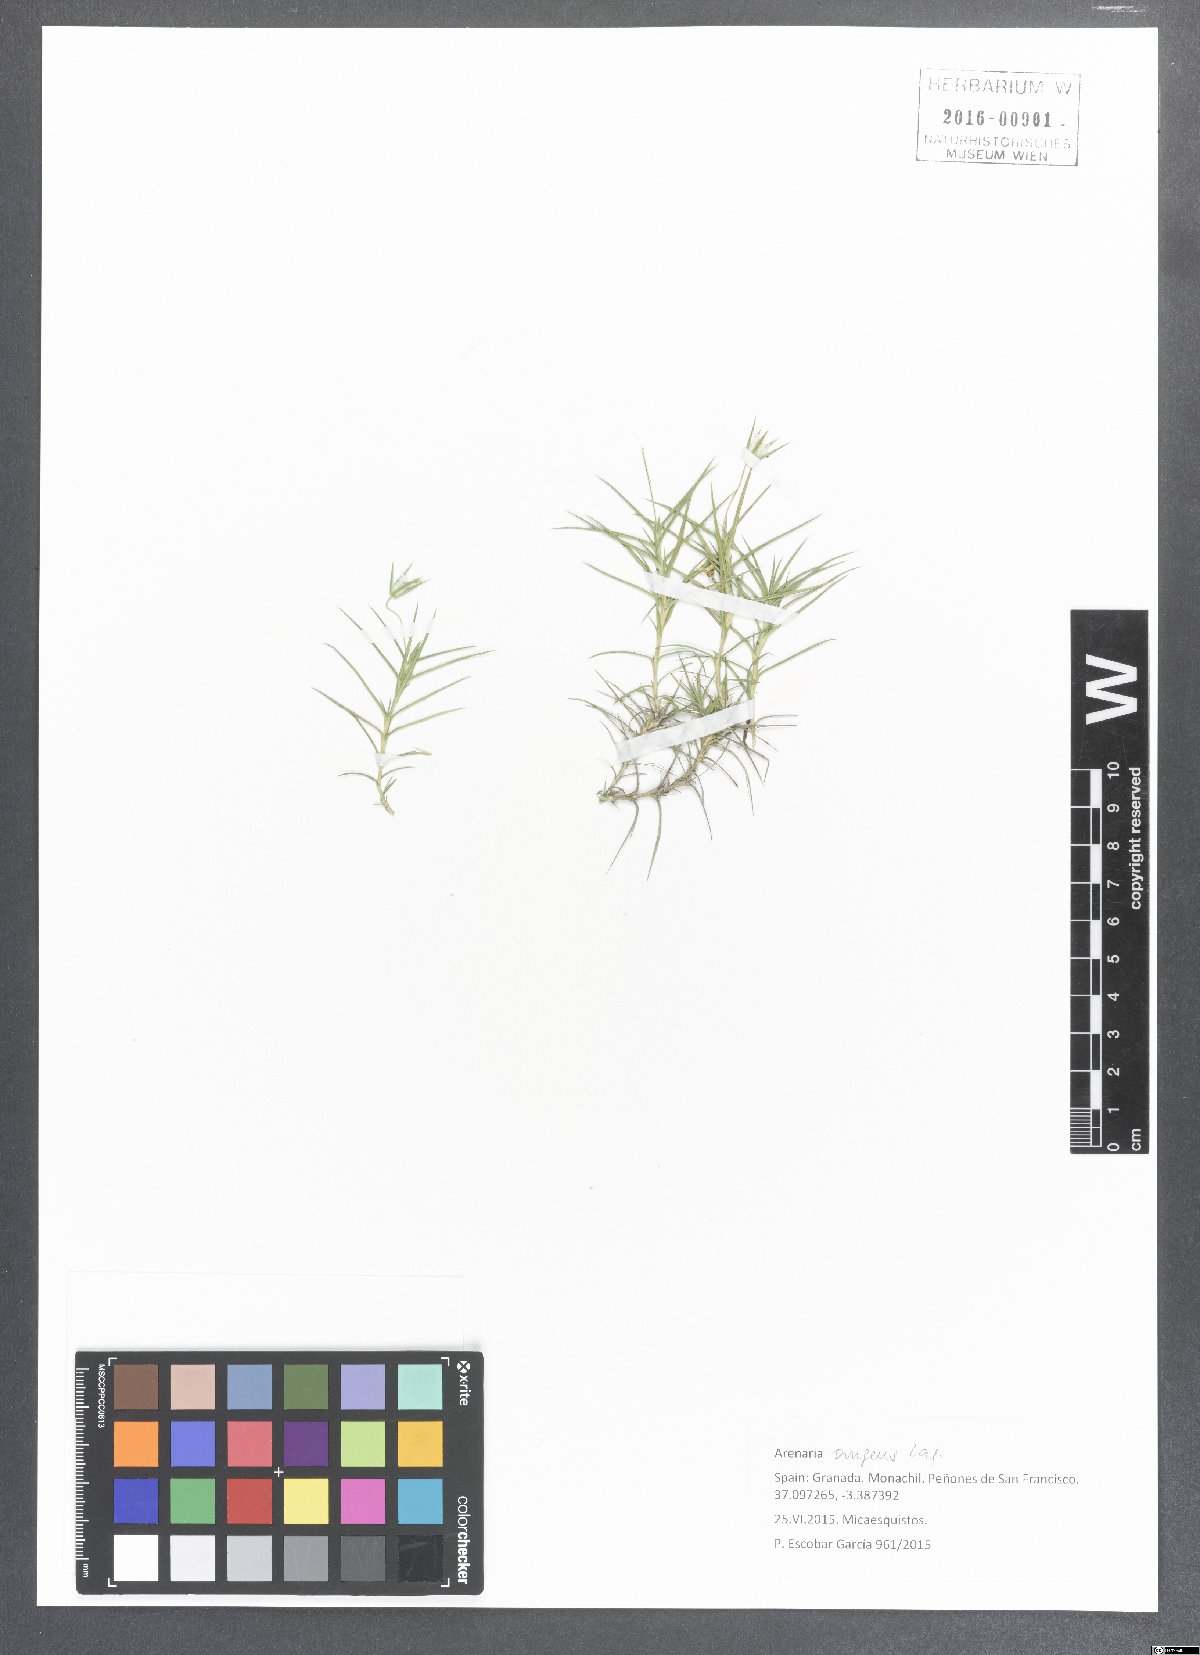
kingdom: Plantae
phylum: Tracheophyta
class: Magnoliopsida
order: Caryophyllales
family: Caryophyllaceae
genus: Arenaria
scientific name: Arenaria pungens
